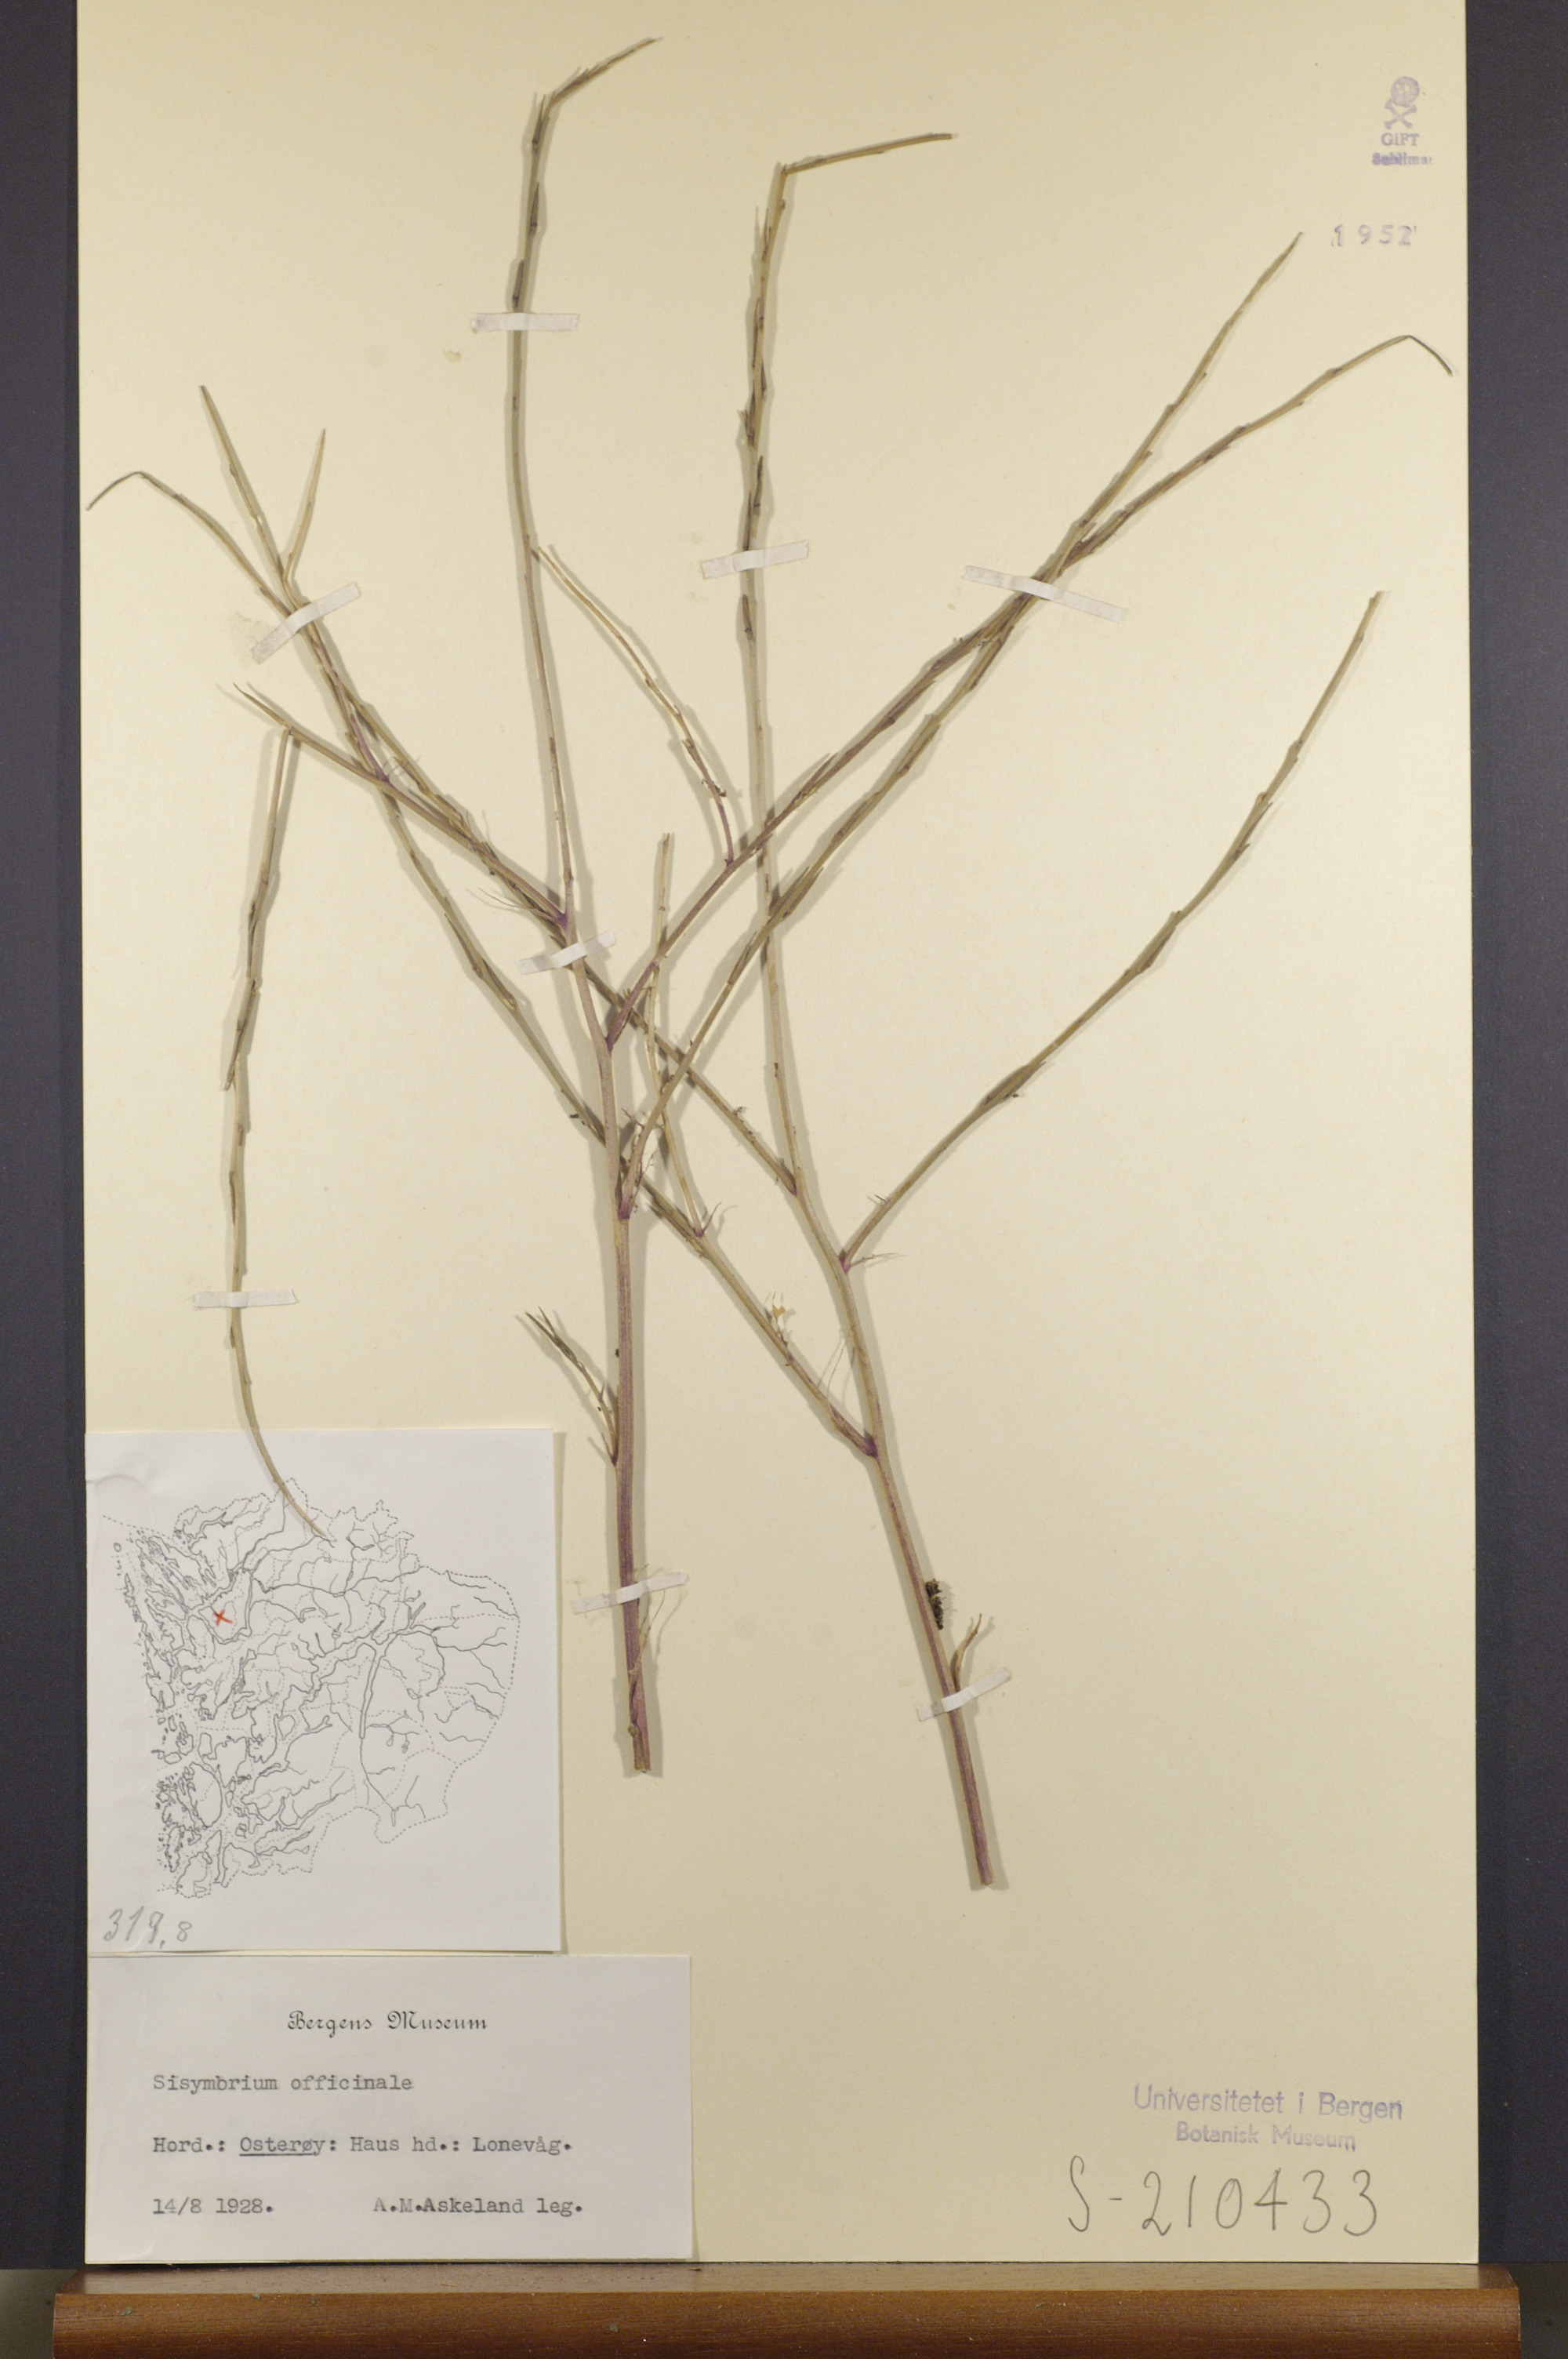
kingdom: Plantae
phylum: Tracheophyta
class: Magnoliopsida
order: Brassicales
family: Brassicaceae
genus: Sisymbrium
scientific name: Sisymbrium officinale
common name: Hedge mustard
